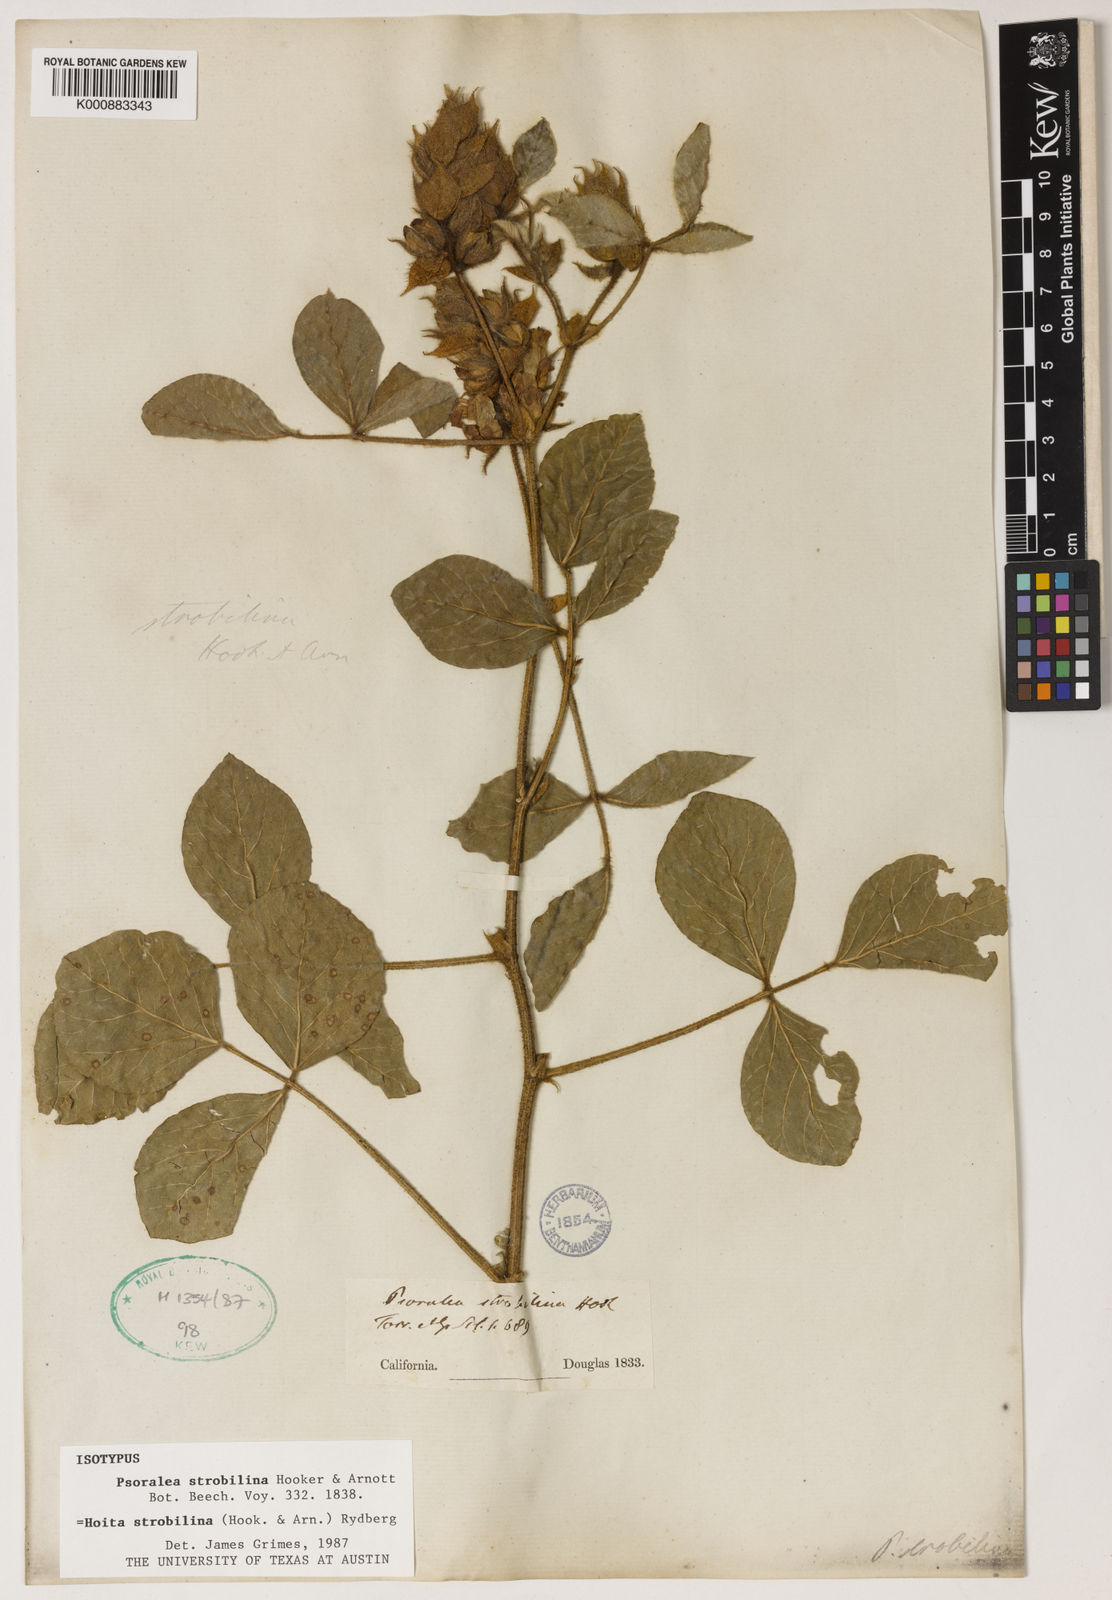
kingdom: Plantae
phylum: Tracheophyta
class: Magnoliopsida
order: Fabales
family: Fabaceae
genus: Hoita
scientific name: Hoita strobilina
